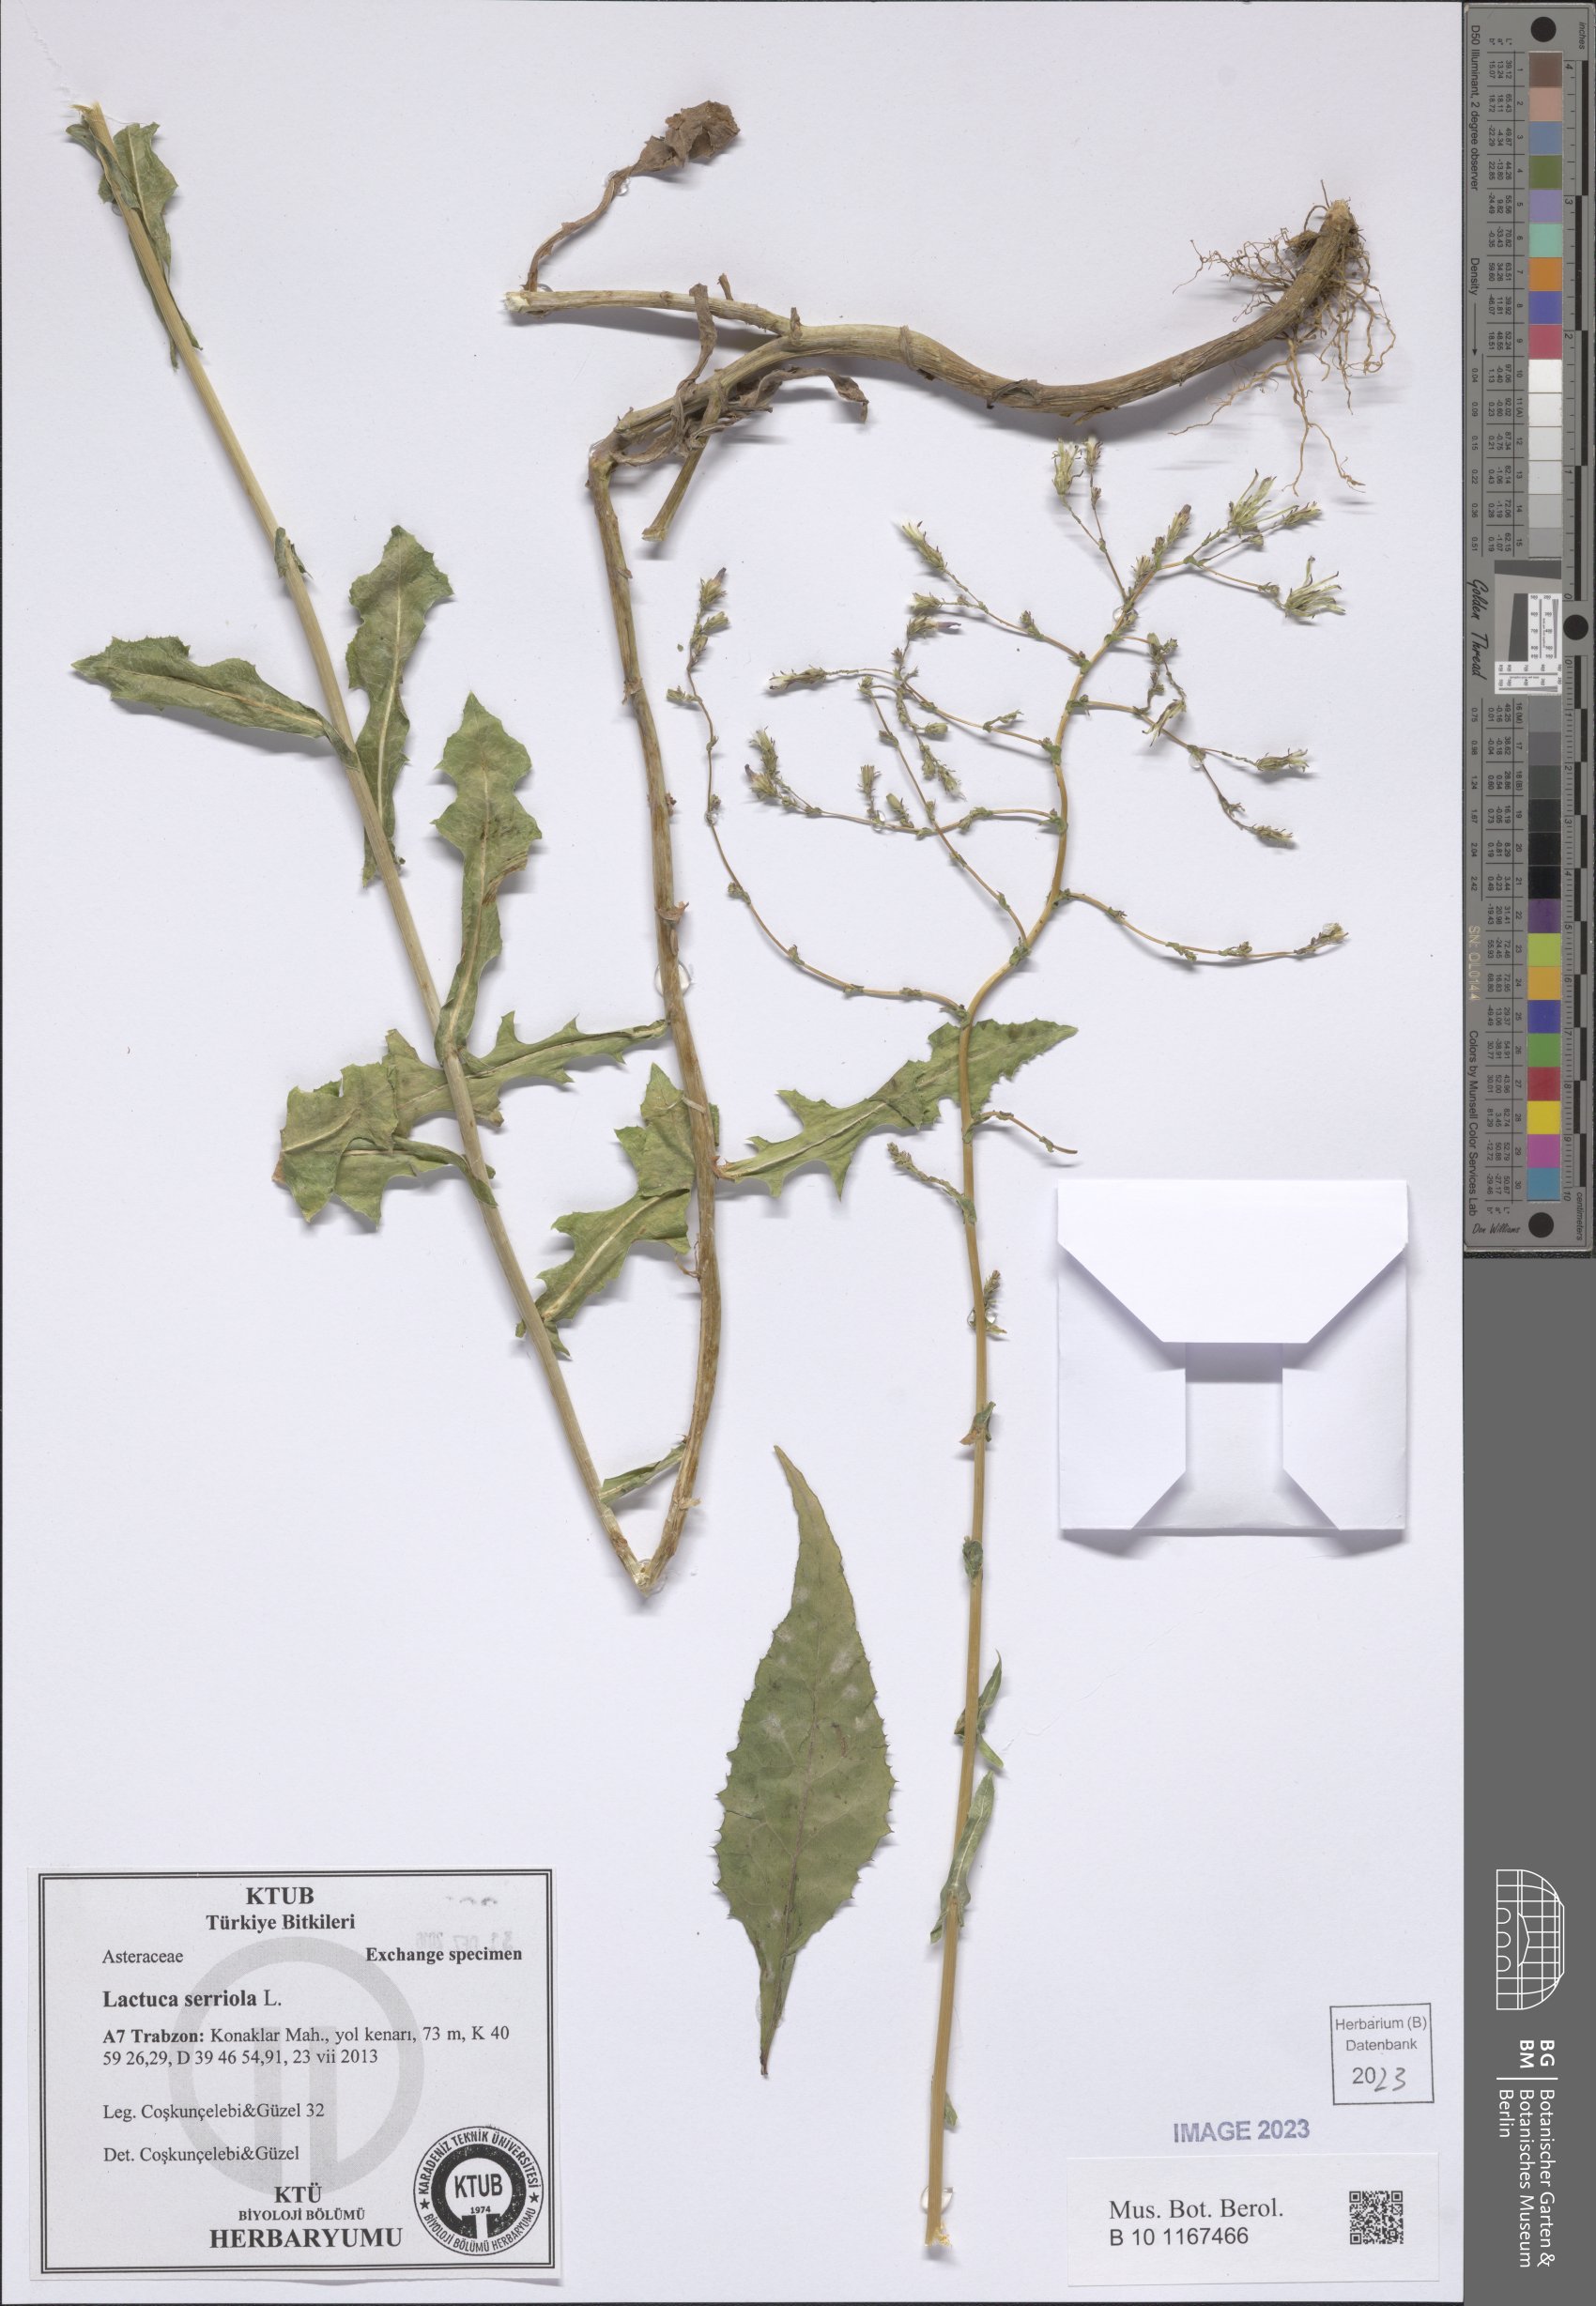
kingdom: Plantae
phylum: Tracheophyta
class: Magnoliopsida
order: Asterales
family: Asteraceae
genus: Lactuca
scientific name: Lactuca serriola
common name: Prickly lettuce
